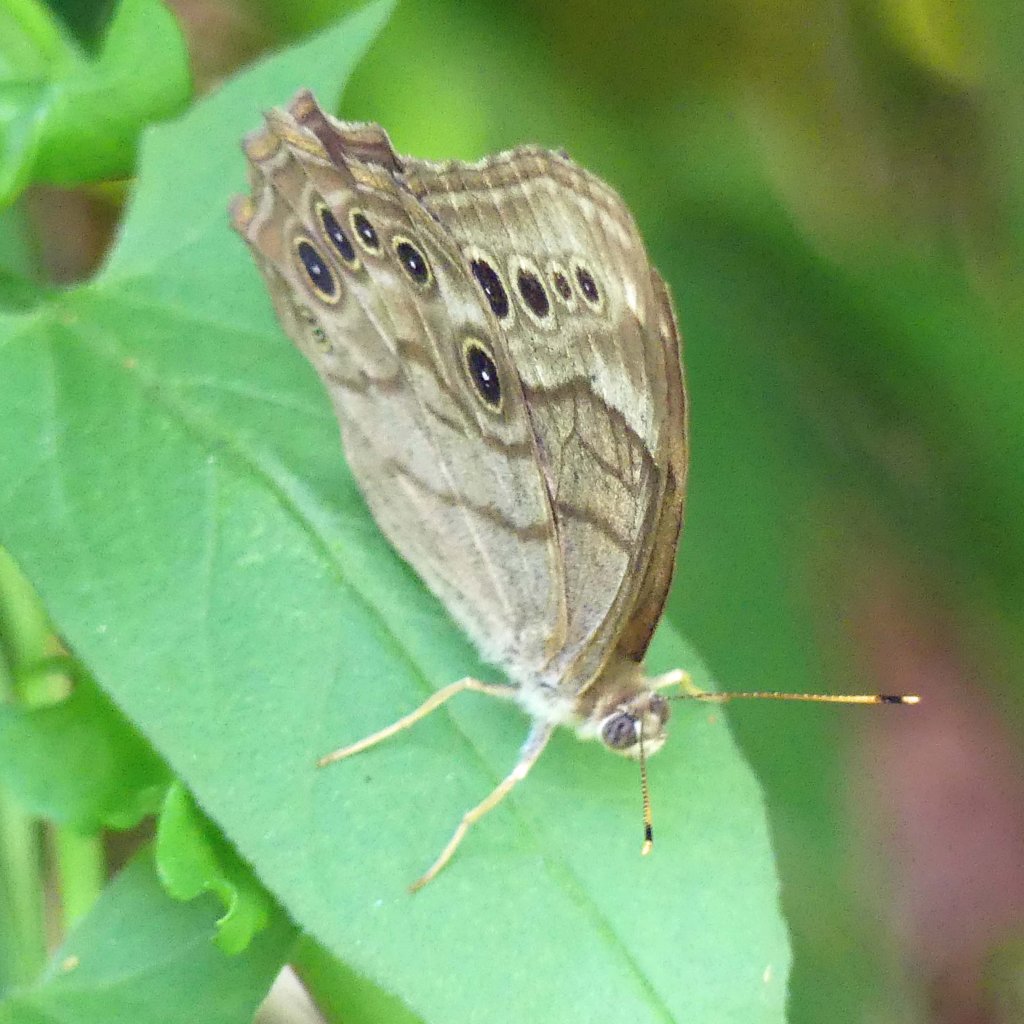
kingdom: Animalia
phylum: Arthropoda
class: Insecta
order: Lepidoptera
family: Nymphalidae
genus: Lethe
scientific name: Lethe anthedon
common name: Northern Pearly-Eye
